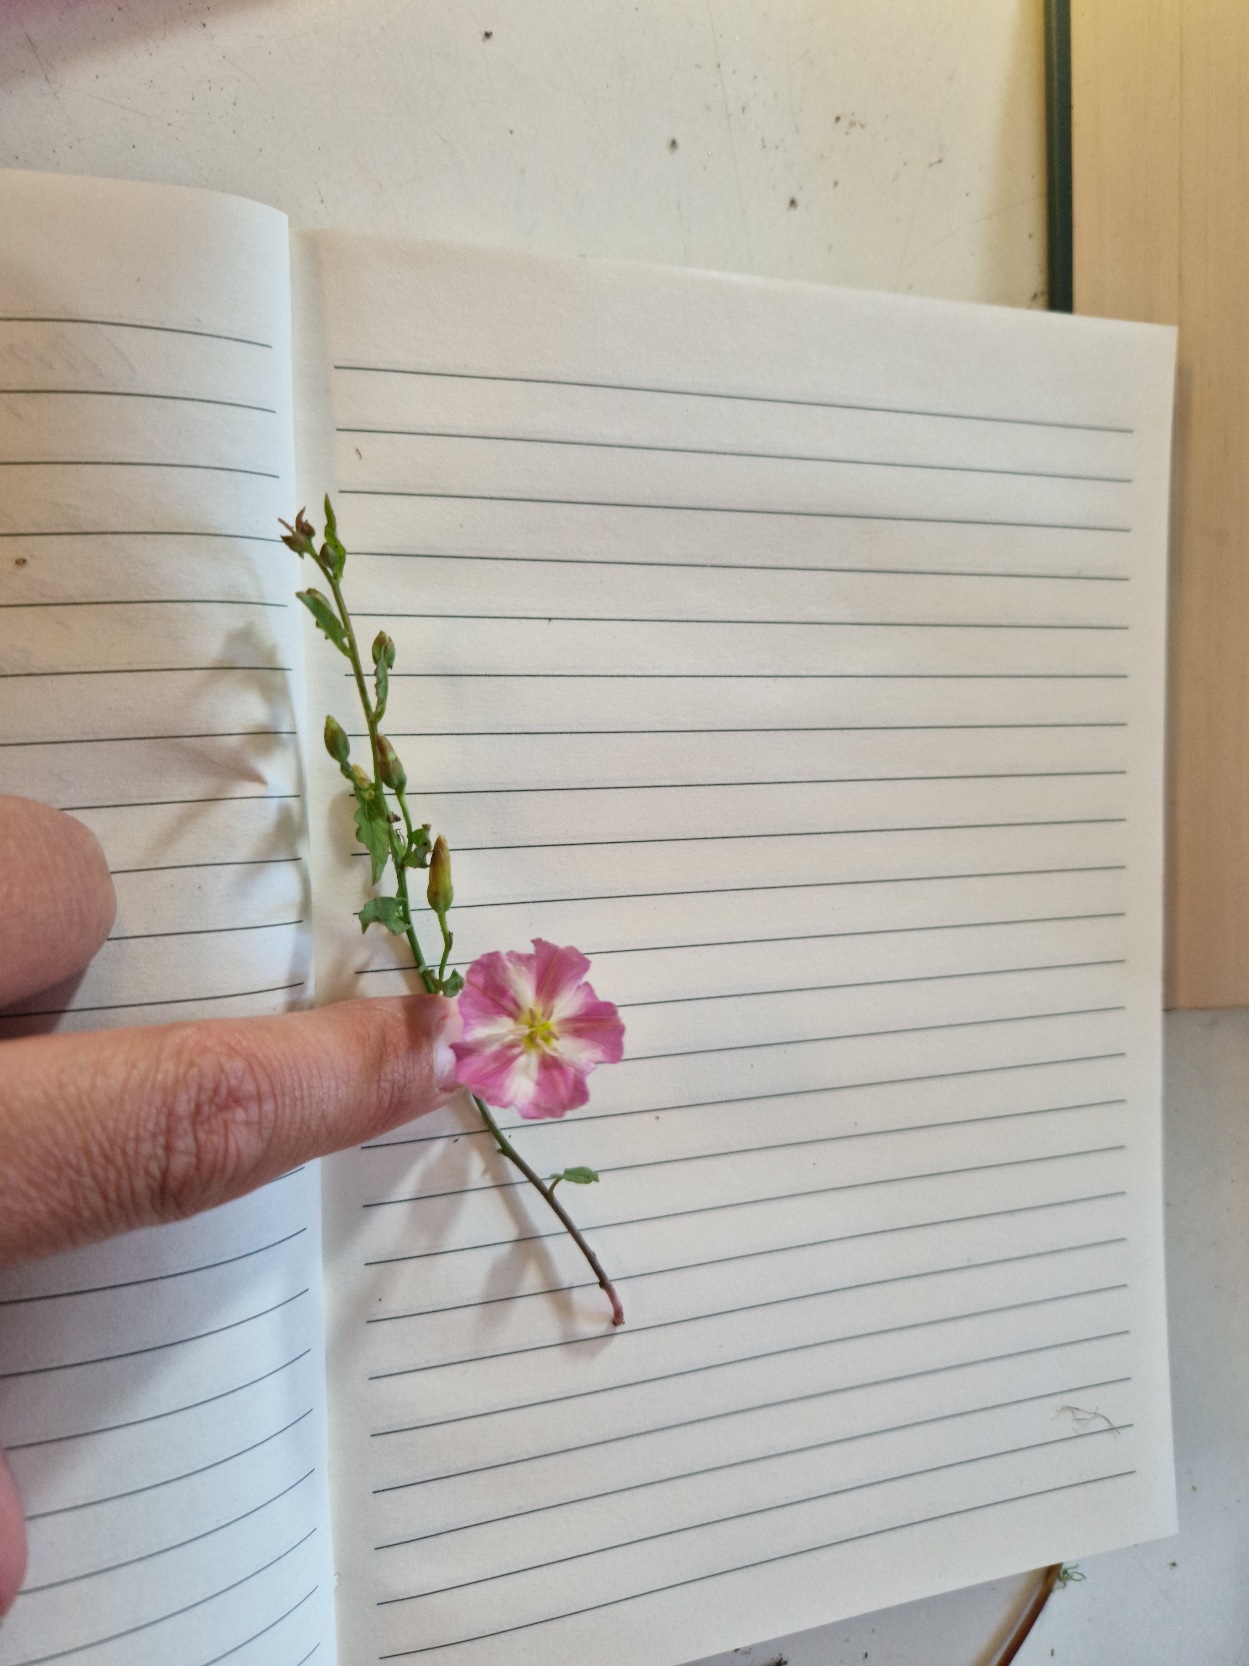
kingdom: Plantae
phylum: Tracheophyta
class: Magnoliopsida
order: Solanales
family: Convolvulaceae
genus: Convolvulus
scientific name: Convolvulus arvensis
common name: Ager-snerle
